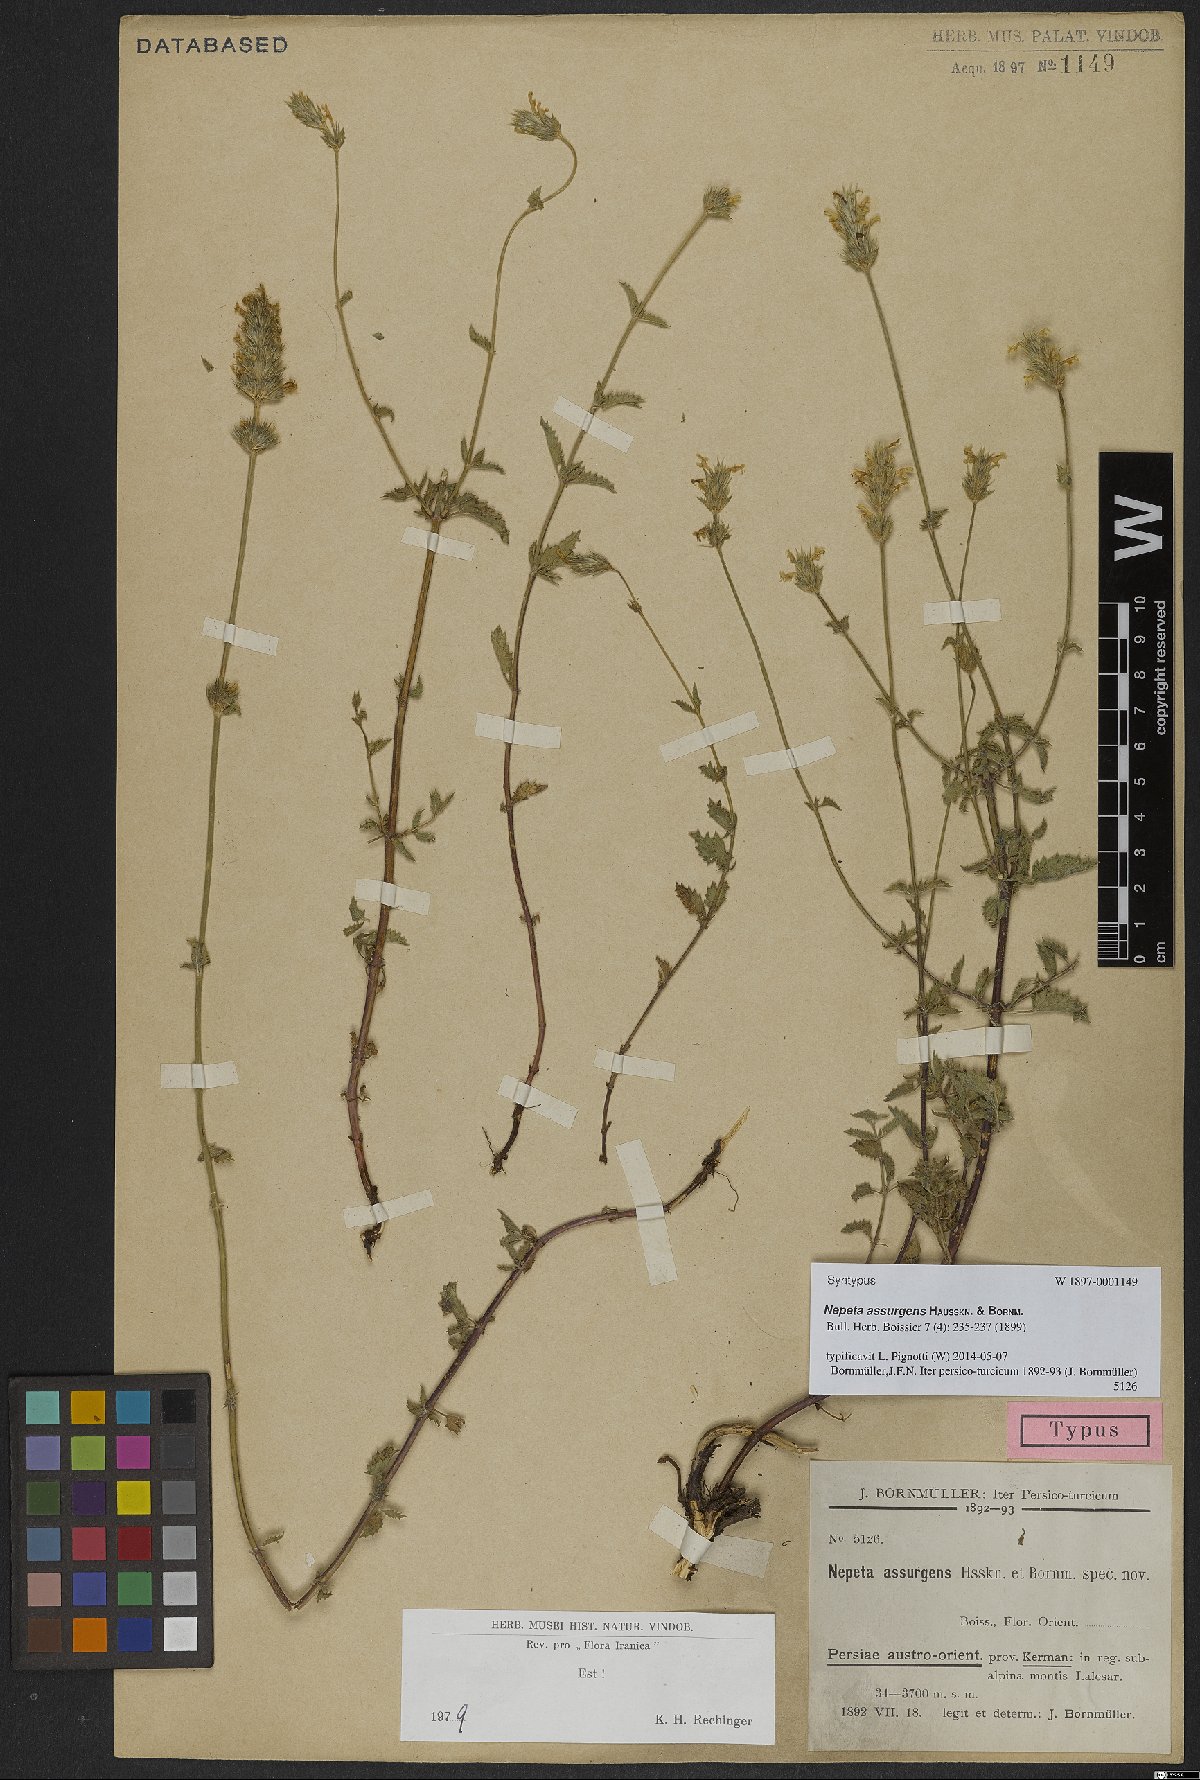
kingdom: Plantae
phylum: Tracheophyta
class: Magnoliopsida
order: Lamiales
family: Lamiaceae
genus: Nepeta
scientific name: Nepeta assurgens
